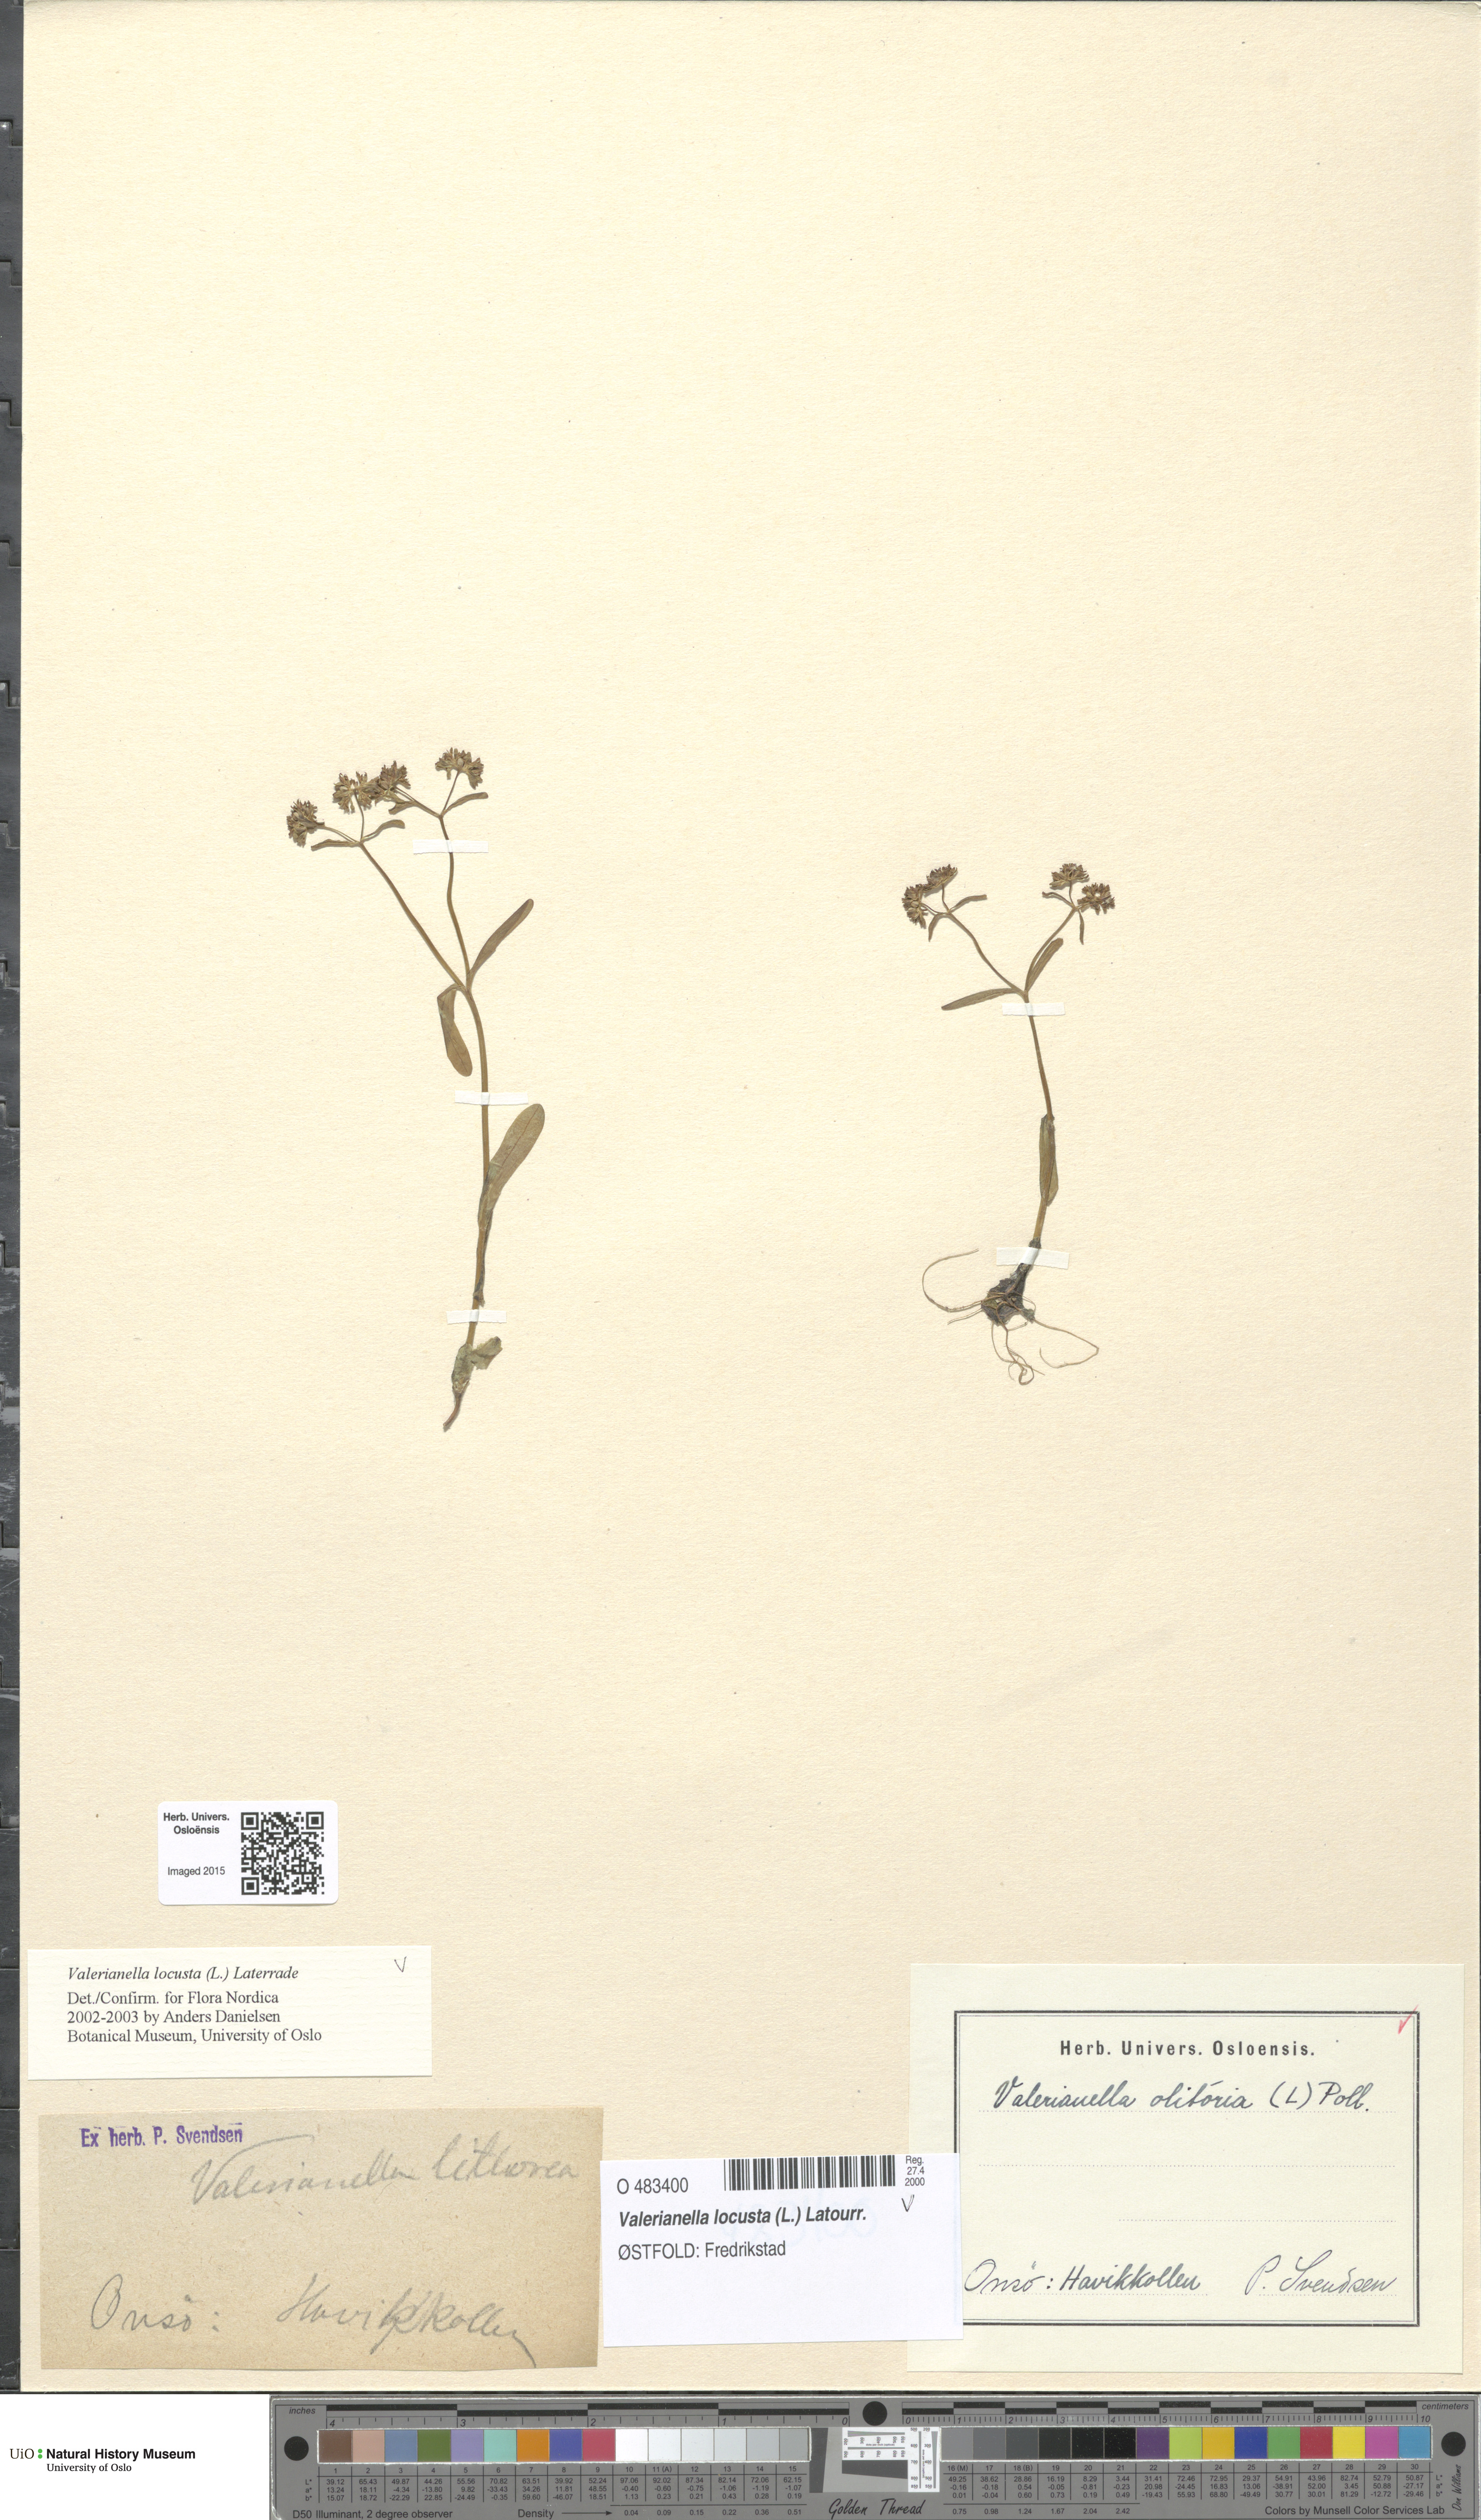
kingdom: Plantae
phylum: Tracheophyta
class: Magnoliopsida
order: Dipsacales
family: Caprifoliaceae
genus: Valerianella
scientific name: Valerianella locusta
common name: Common cornsalad
